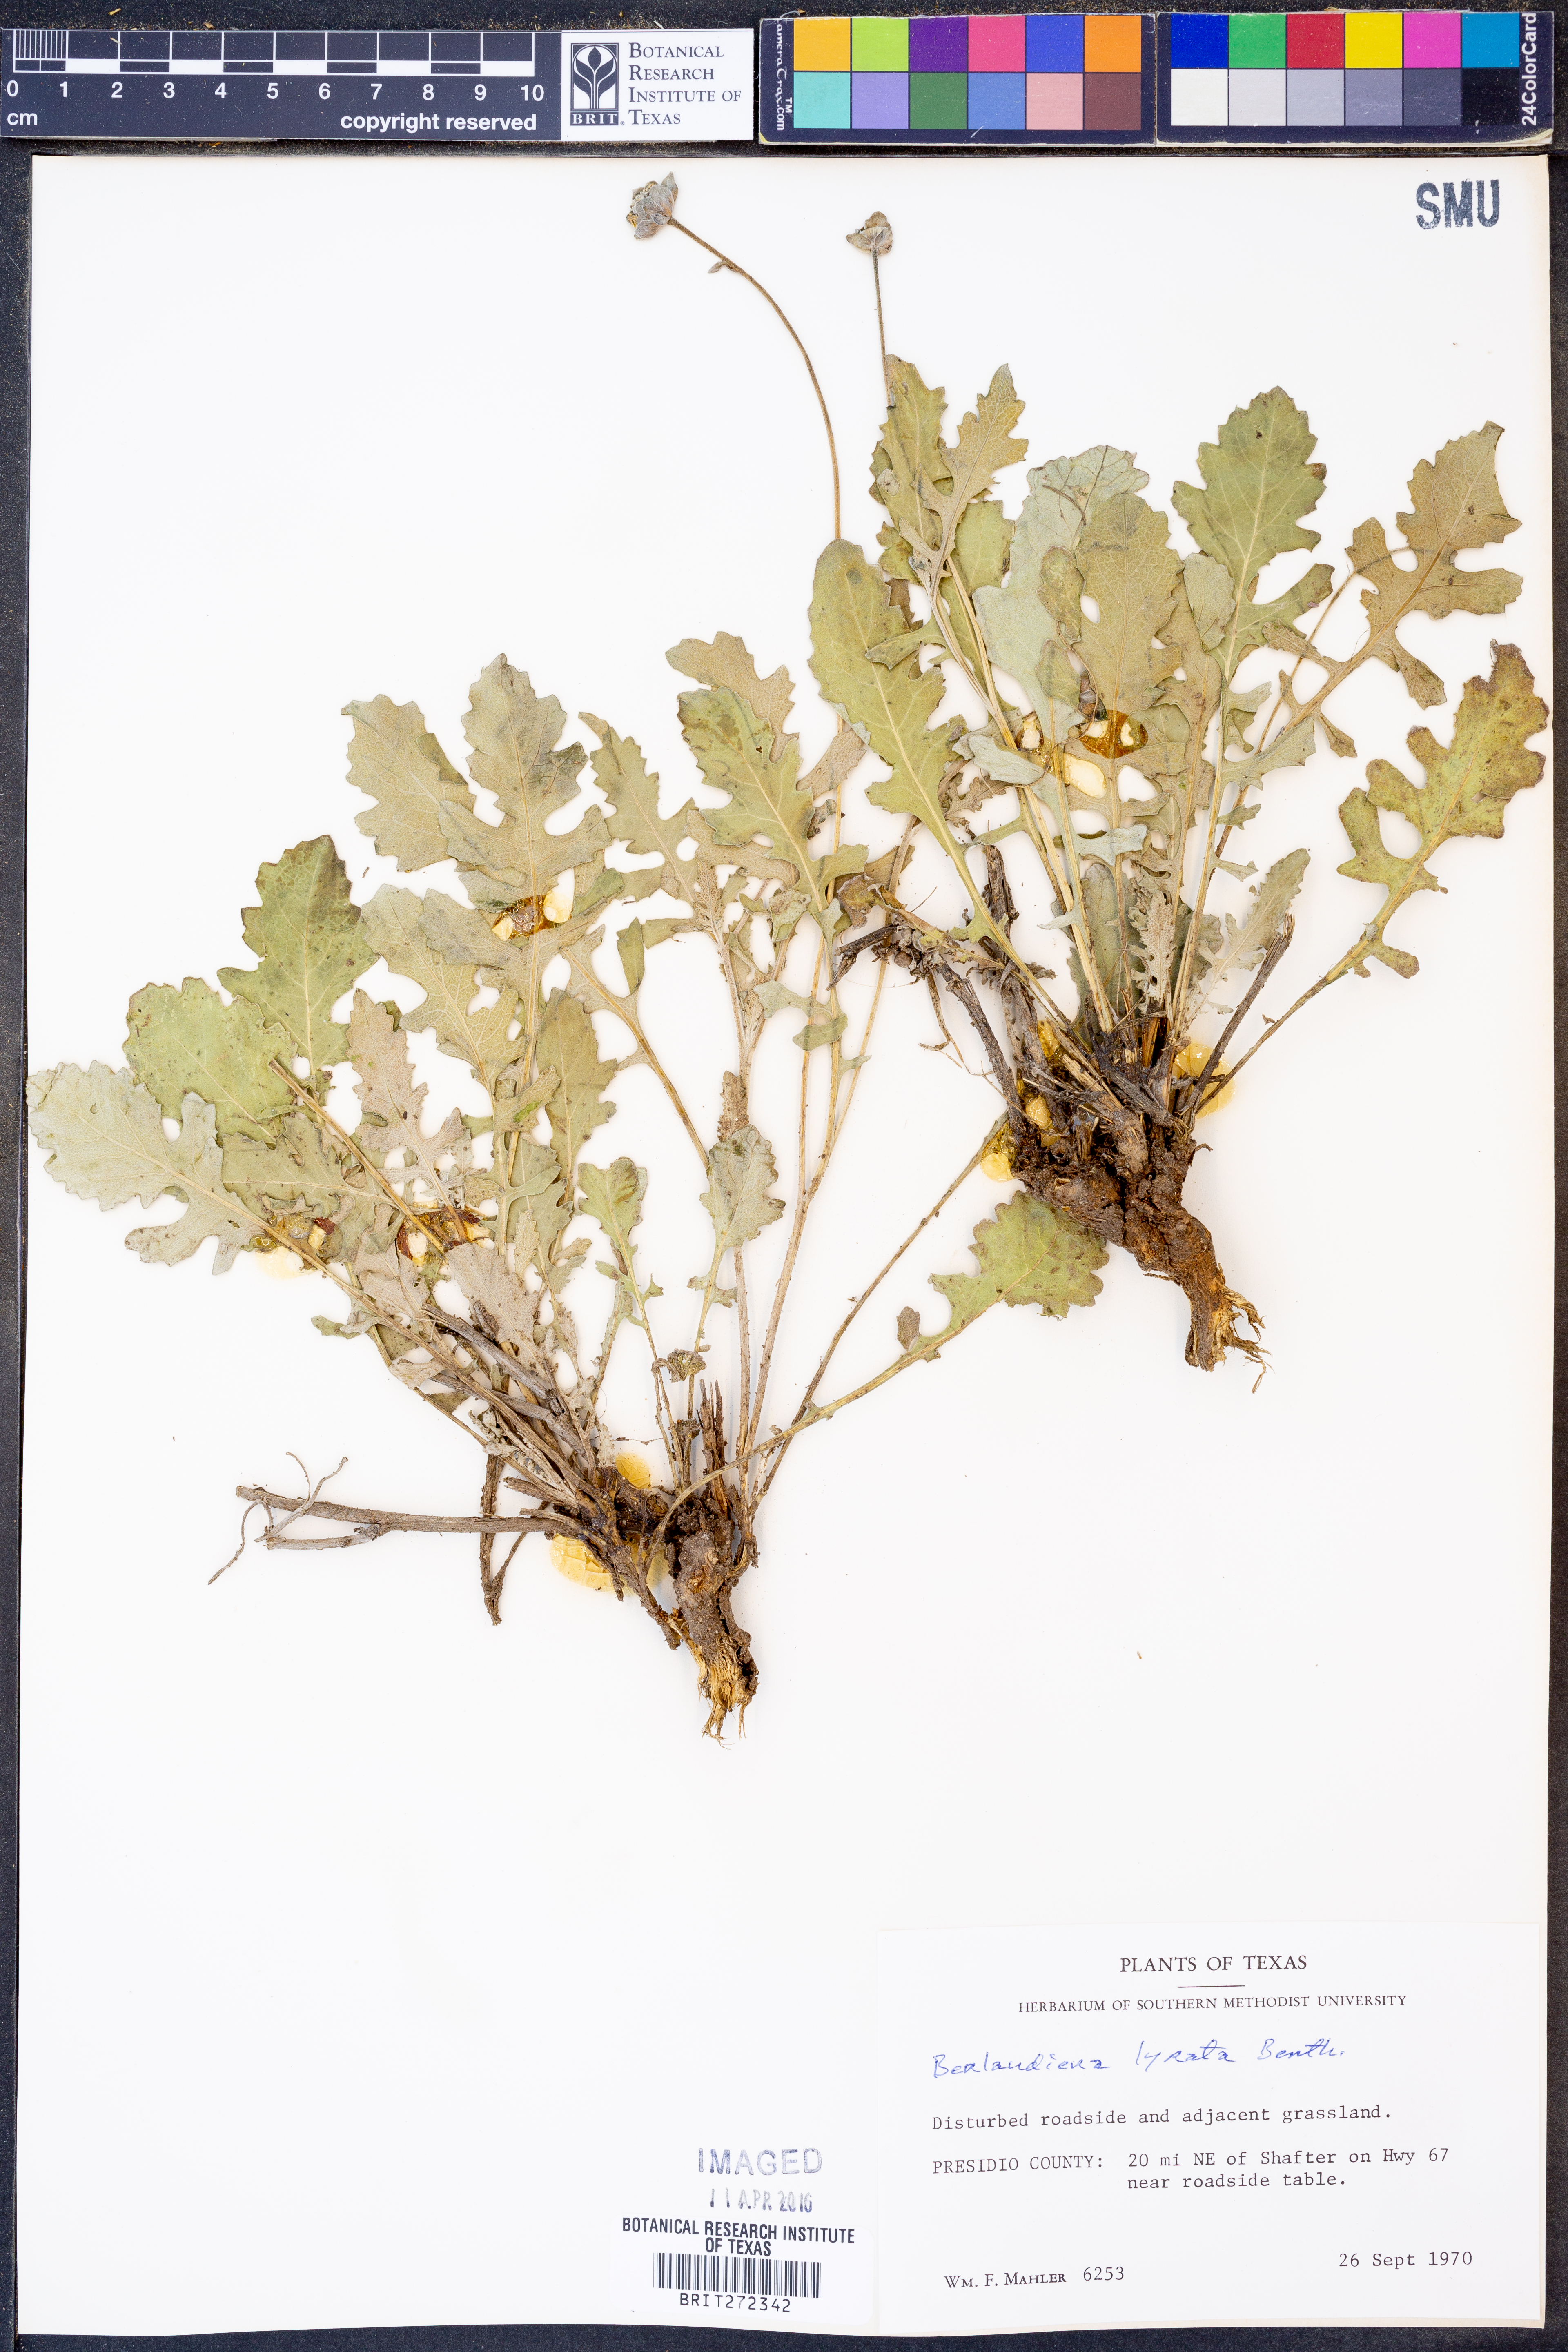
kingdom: Plantae
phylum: Tracheophyta
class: Magnoliopsida
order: Asterales
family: Asteraceae
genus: Berlandiera
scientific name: Berlandiera lyrata
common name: Chocolate-flower
